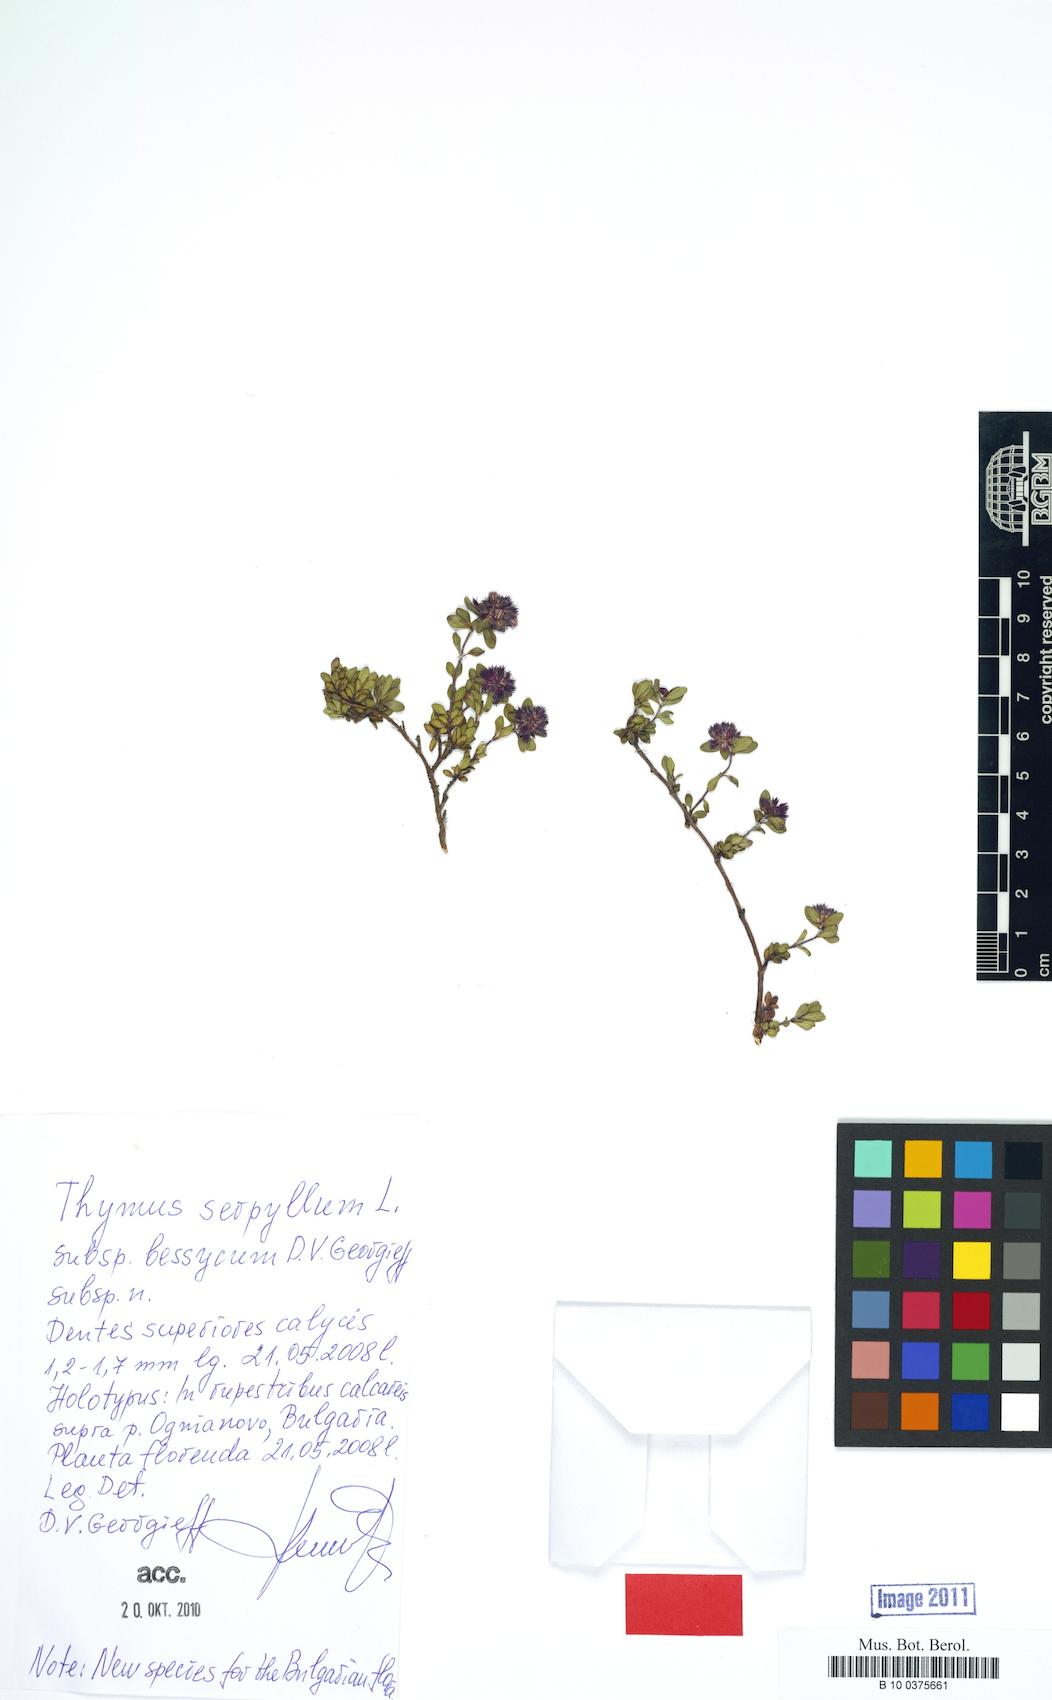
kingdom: Plantae
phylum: Tracheophyta
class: Magnoliopsida
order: Lamiales
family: Lamiaceae
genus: Thymus
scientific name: Thymus serphyllum
